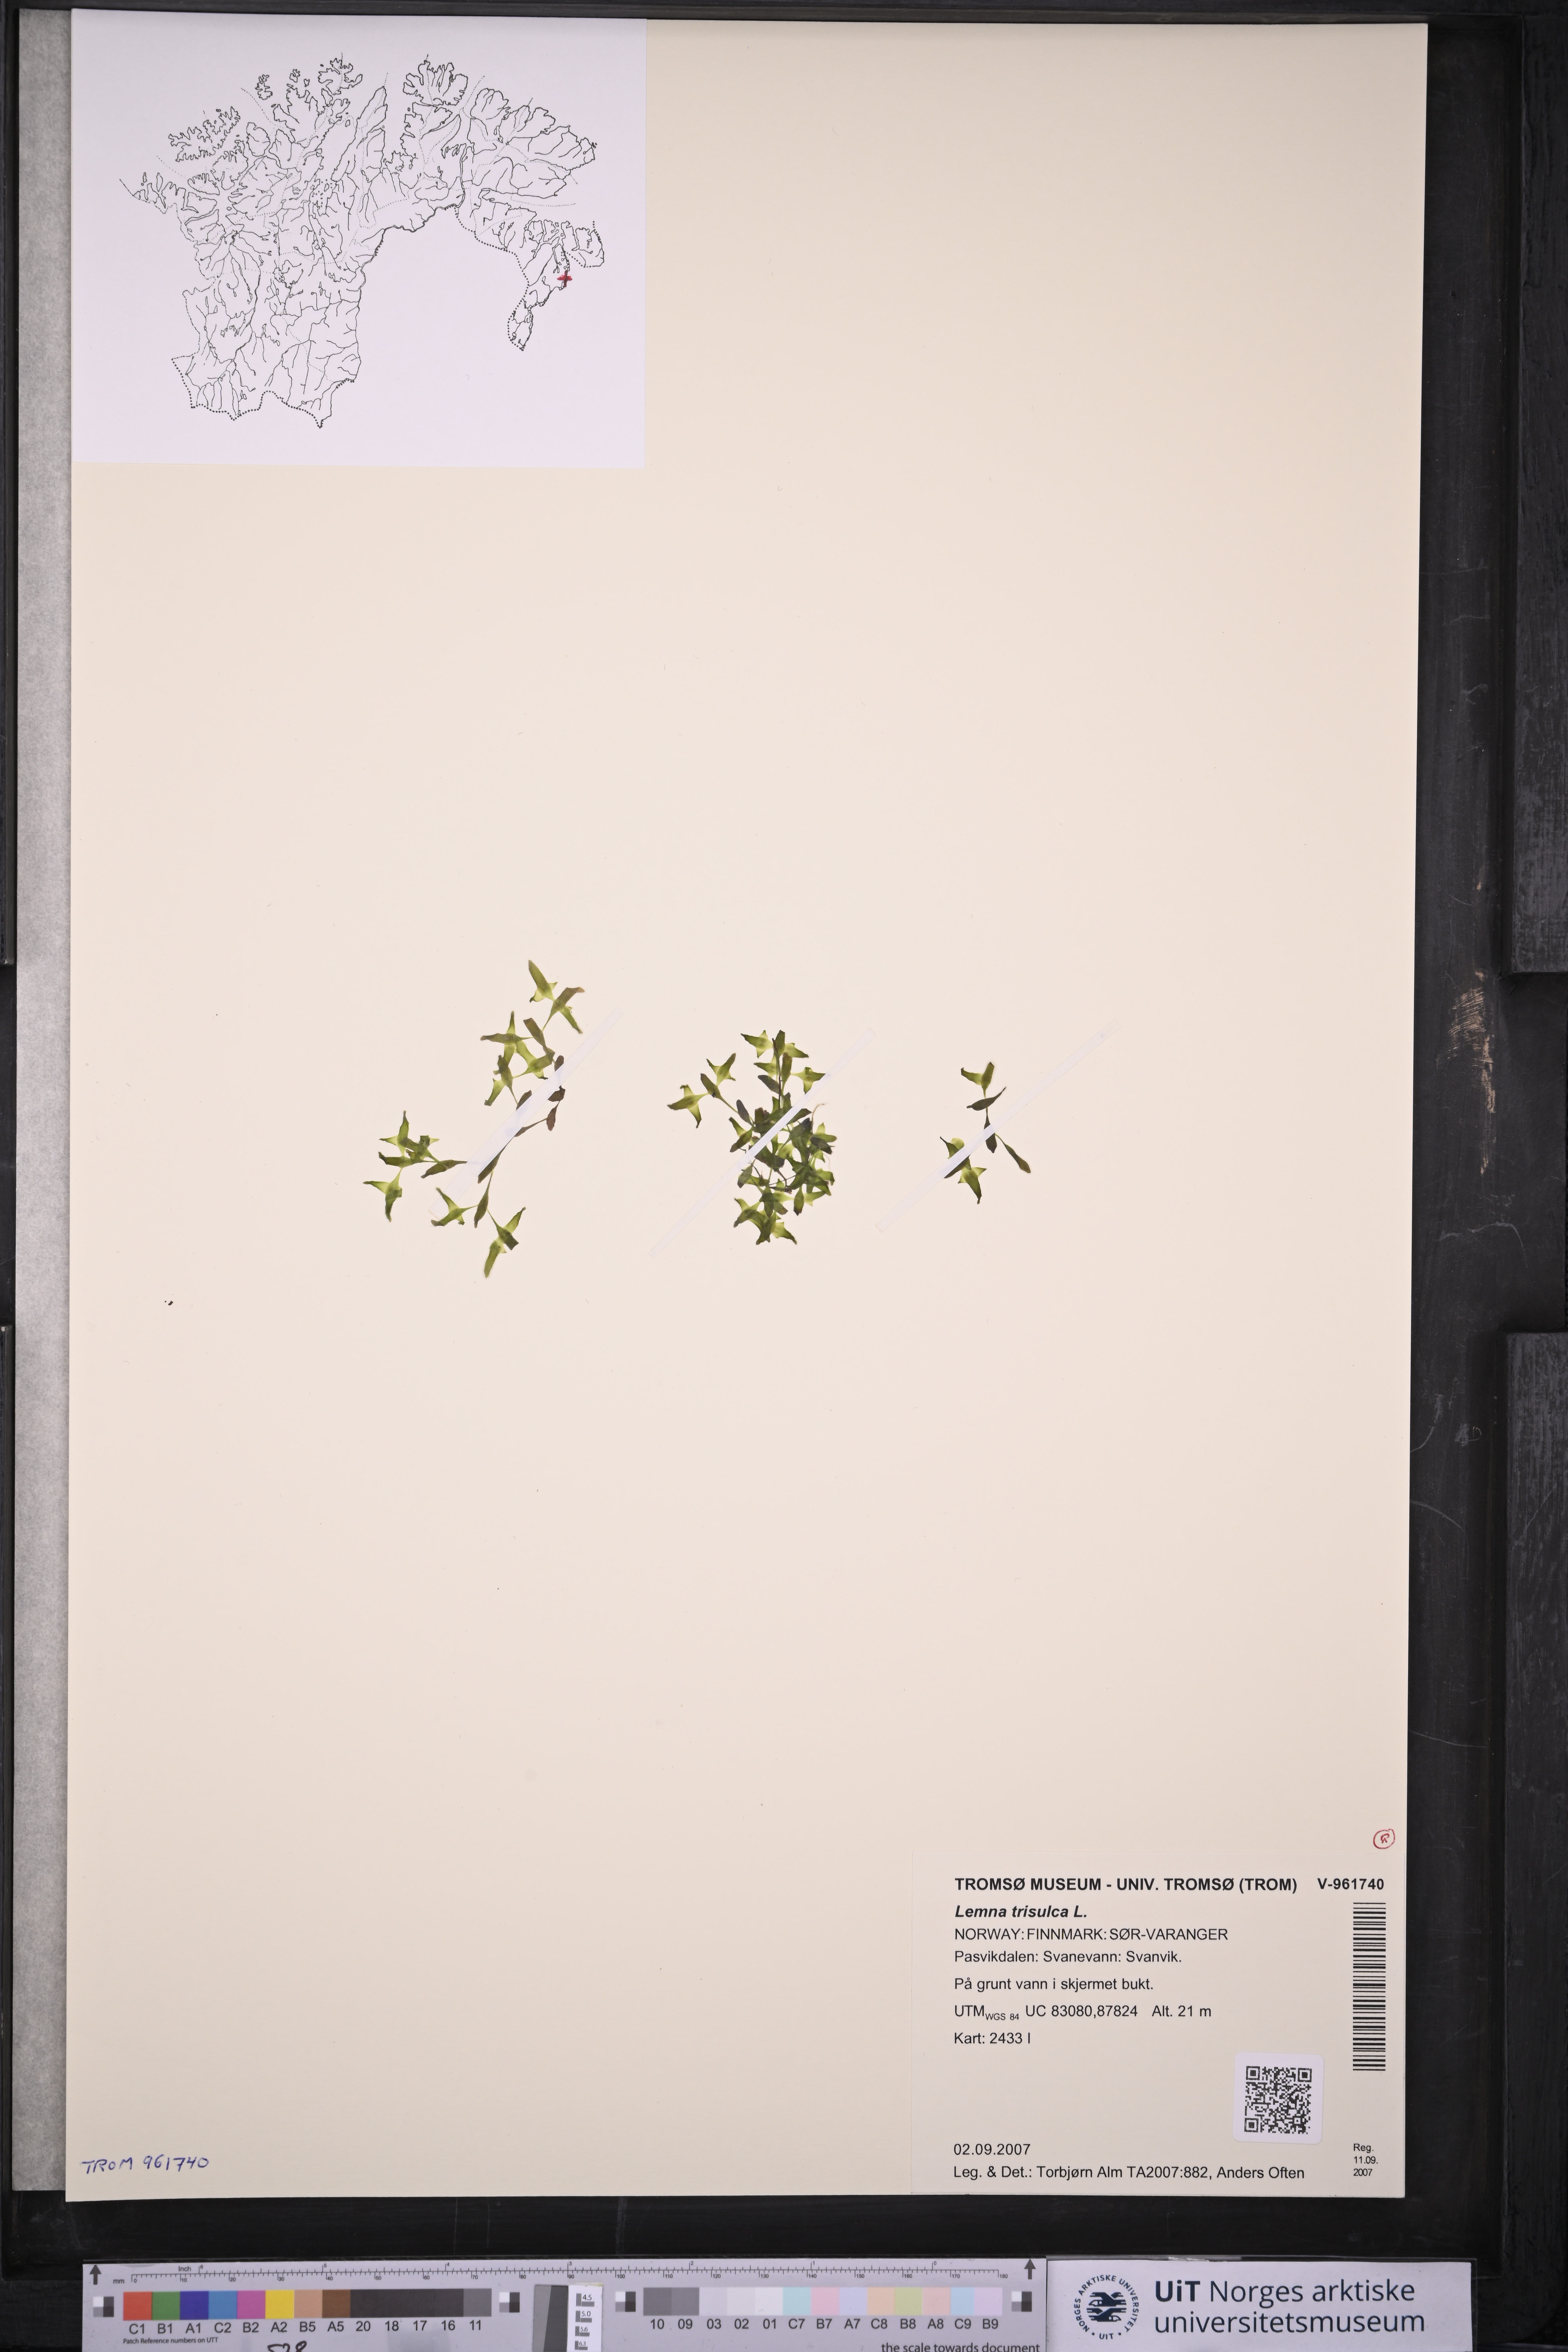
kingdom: Plantae
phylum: Tracheophyta
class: Liliopsida
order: Alismatales
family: Araceae
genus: Lemna
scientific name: Lemna trisulca
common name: Ivy-leaved duckweed
